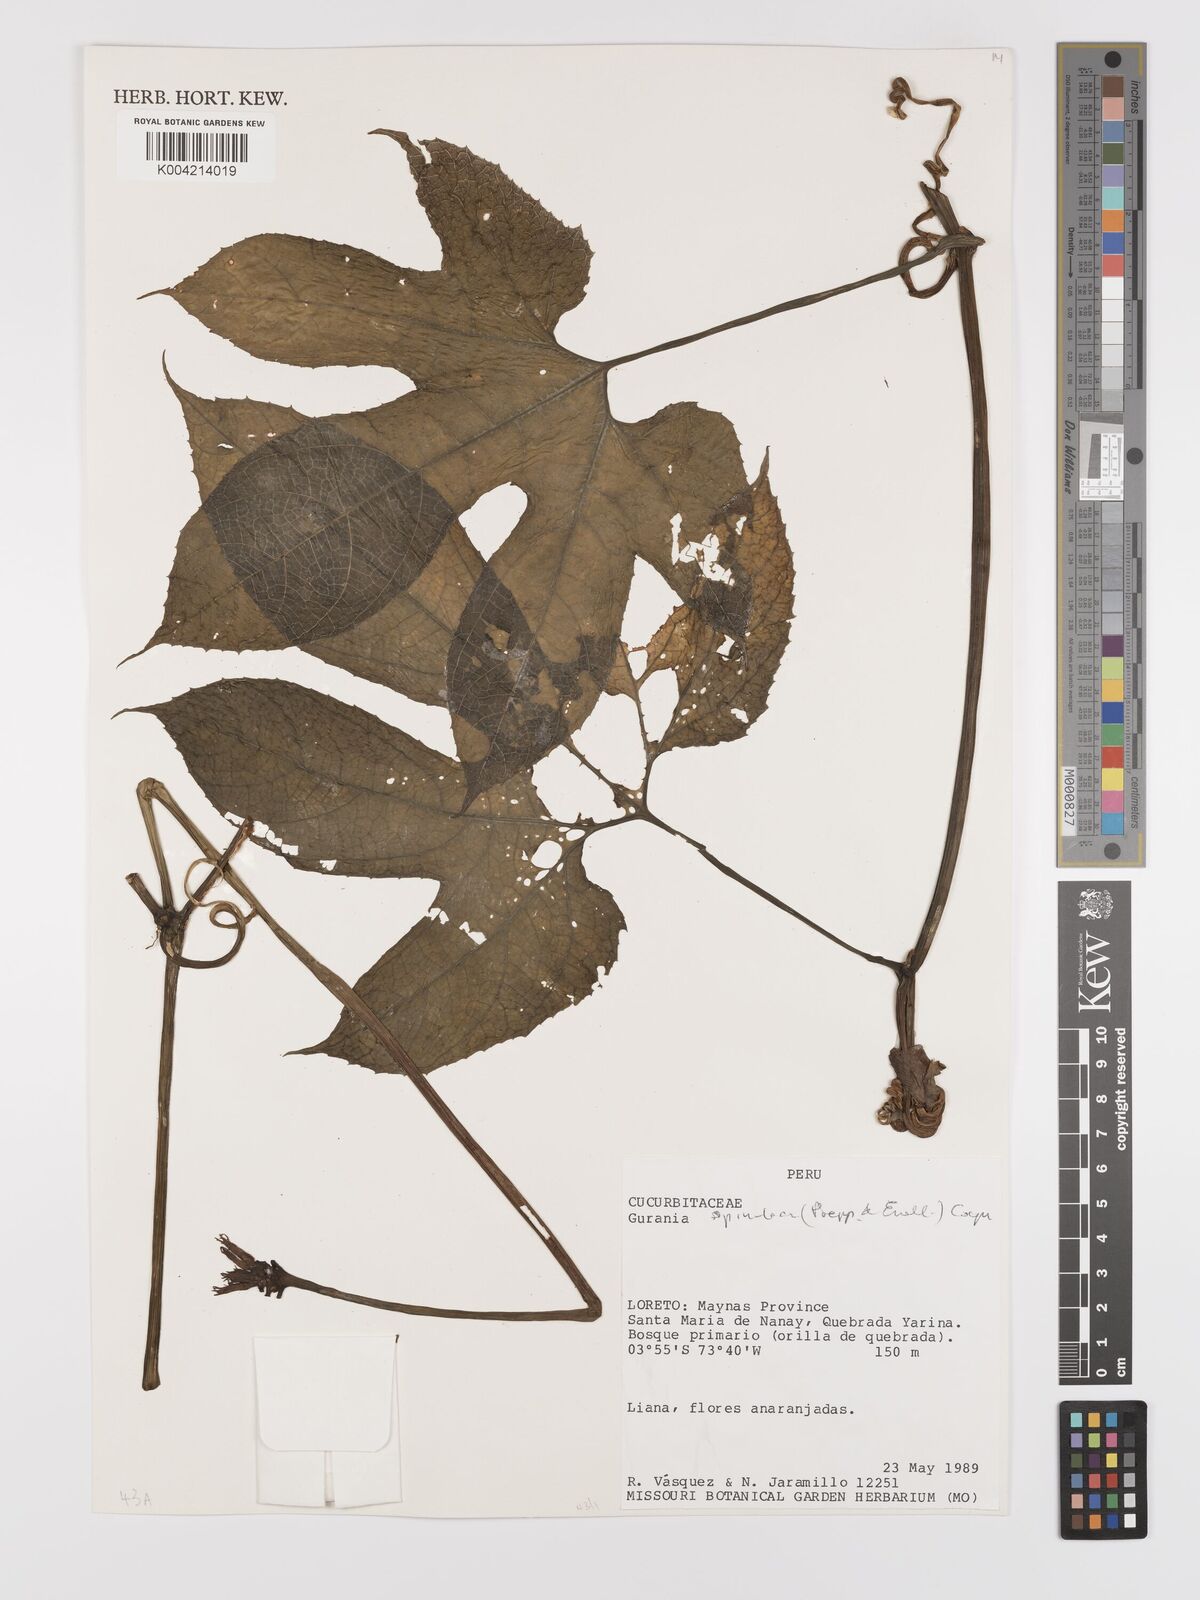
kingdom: Plantae
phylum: Tracheophyta
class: Magnoliopsida
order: Cucurbitales
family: Cucurbitaceae
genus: Gurania
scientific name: Gurania lobata
